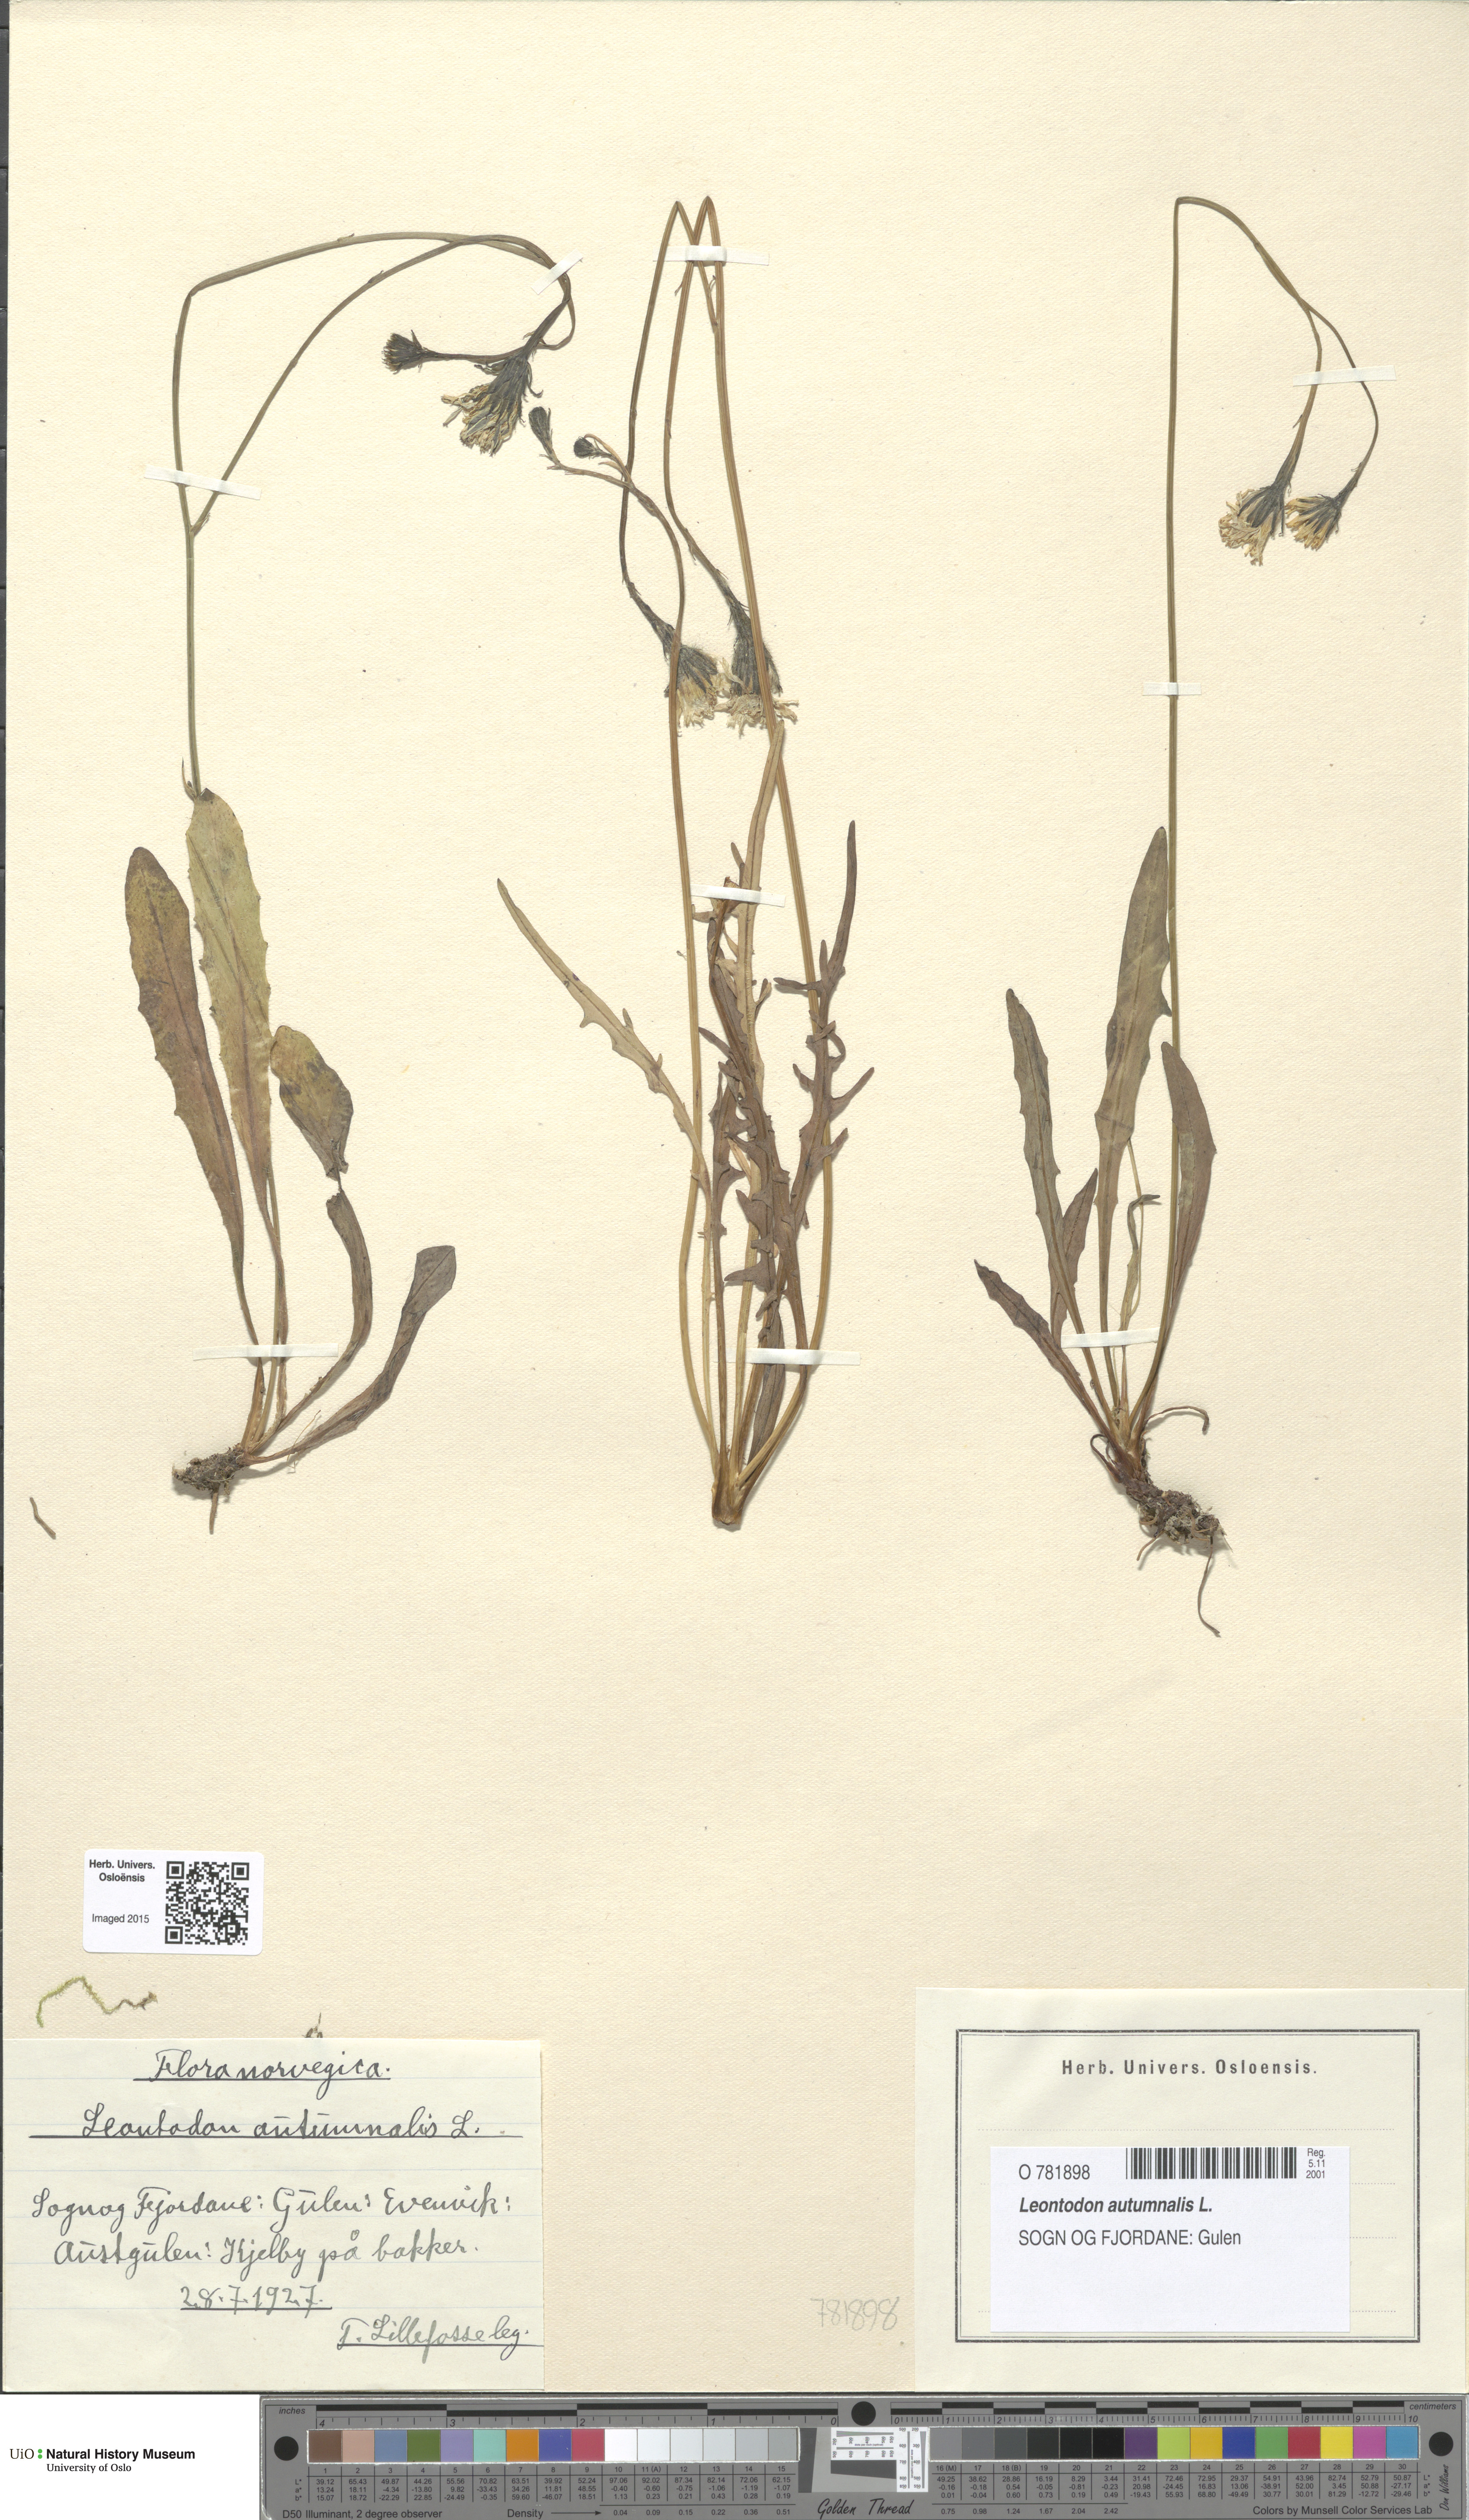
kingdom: Plantae
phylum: Tracheophyta
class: Magnoliopsida
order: Asterales
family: Asteraceae
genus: Scorzoneroides
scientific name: Scorzoneroides autumnalis
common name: Autumn hawkbit
